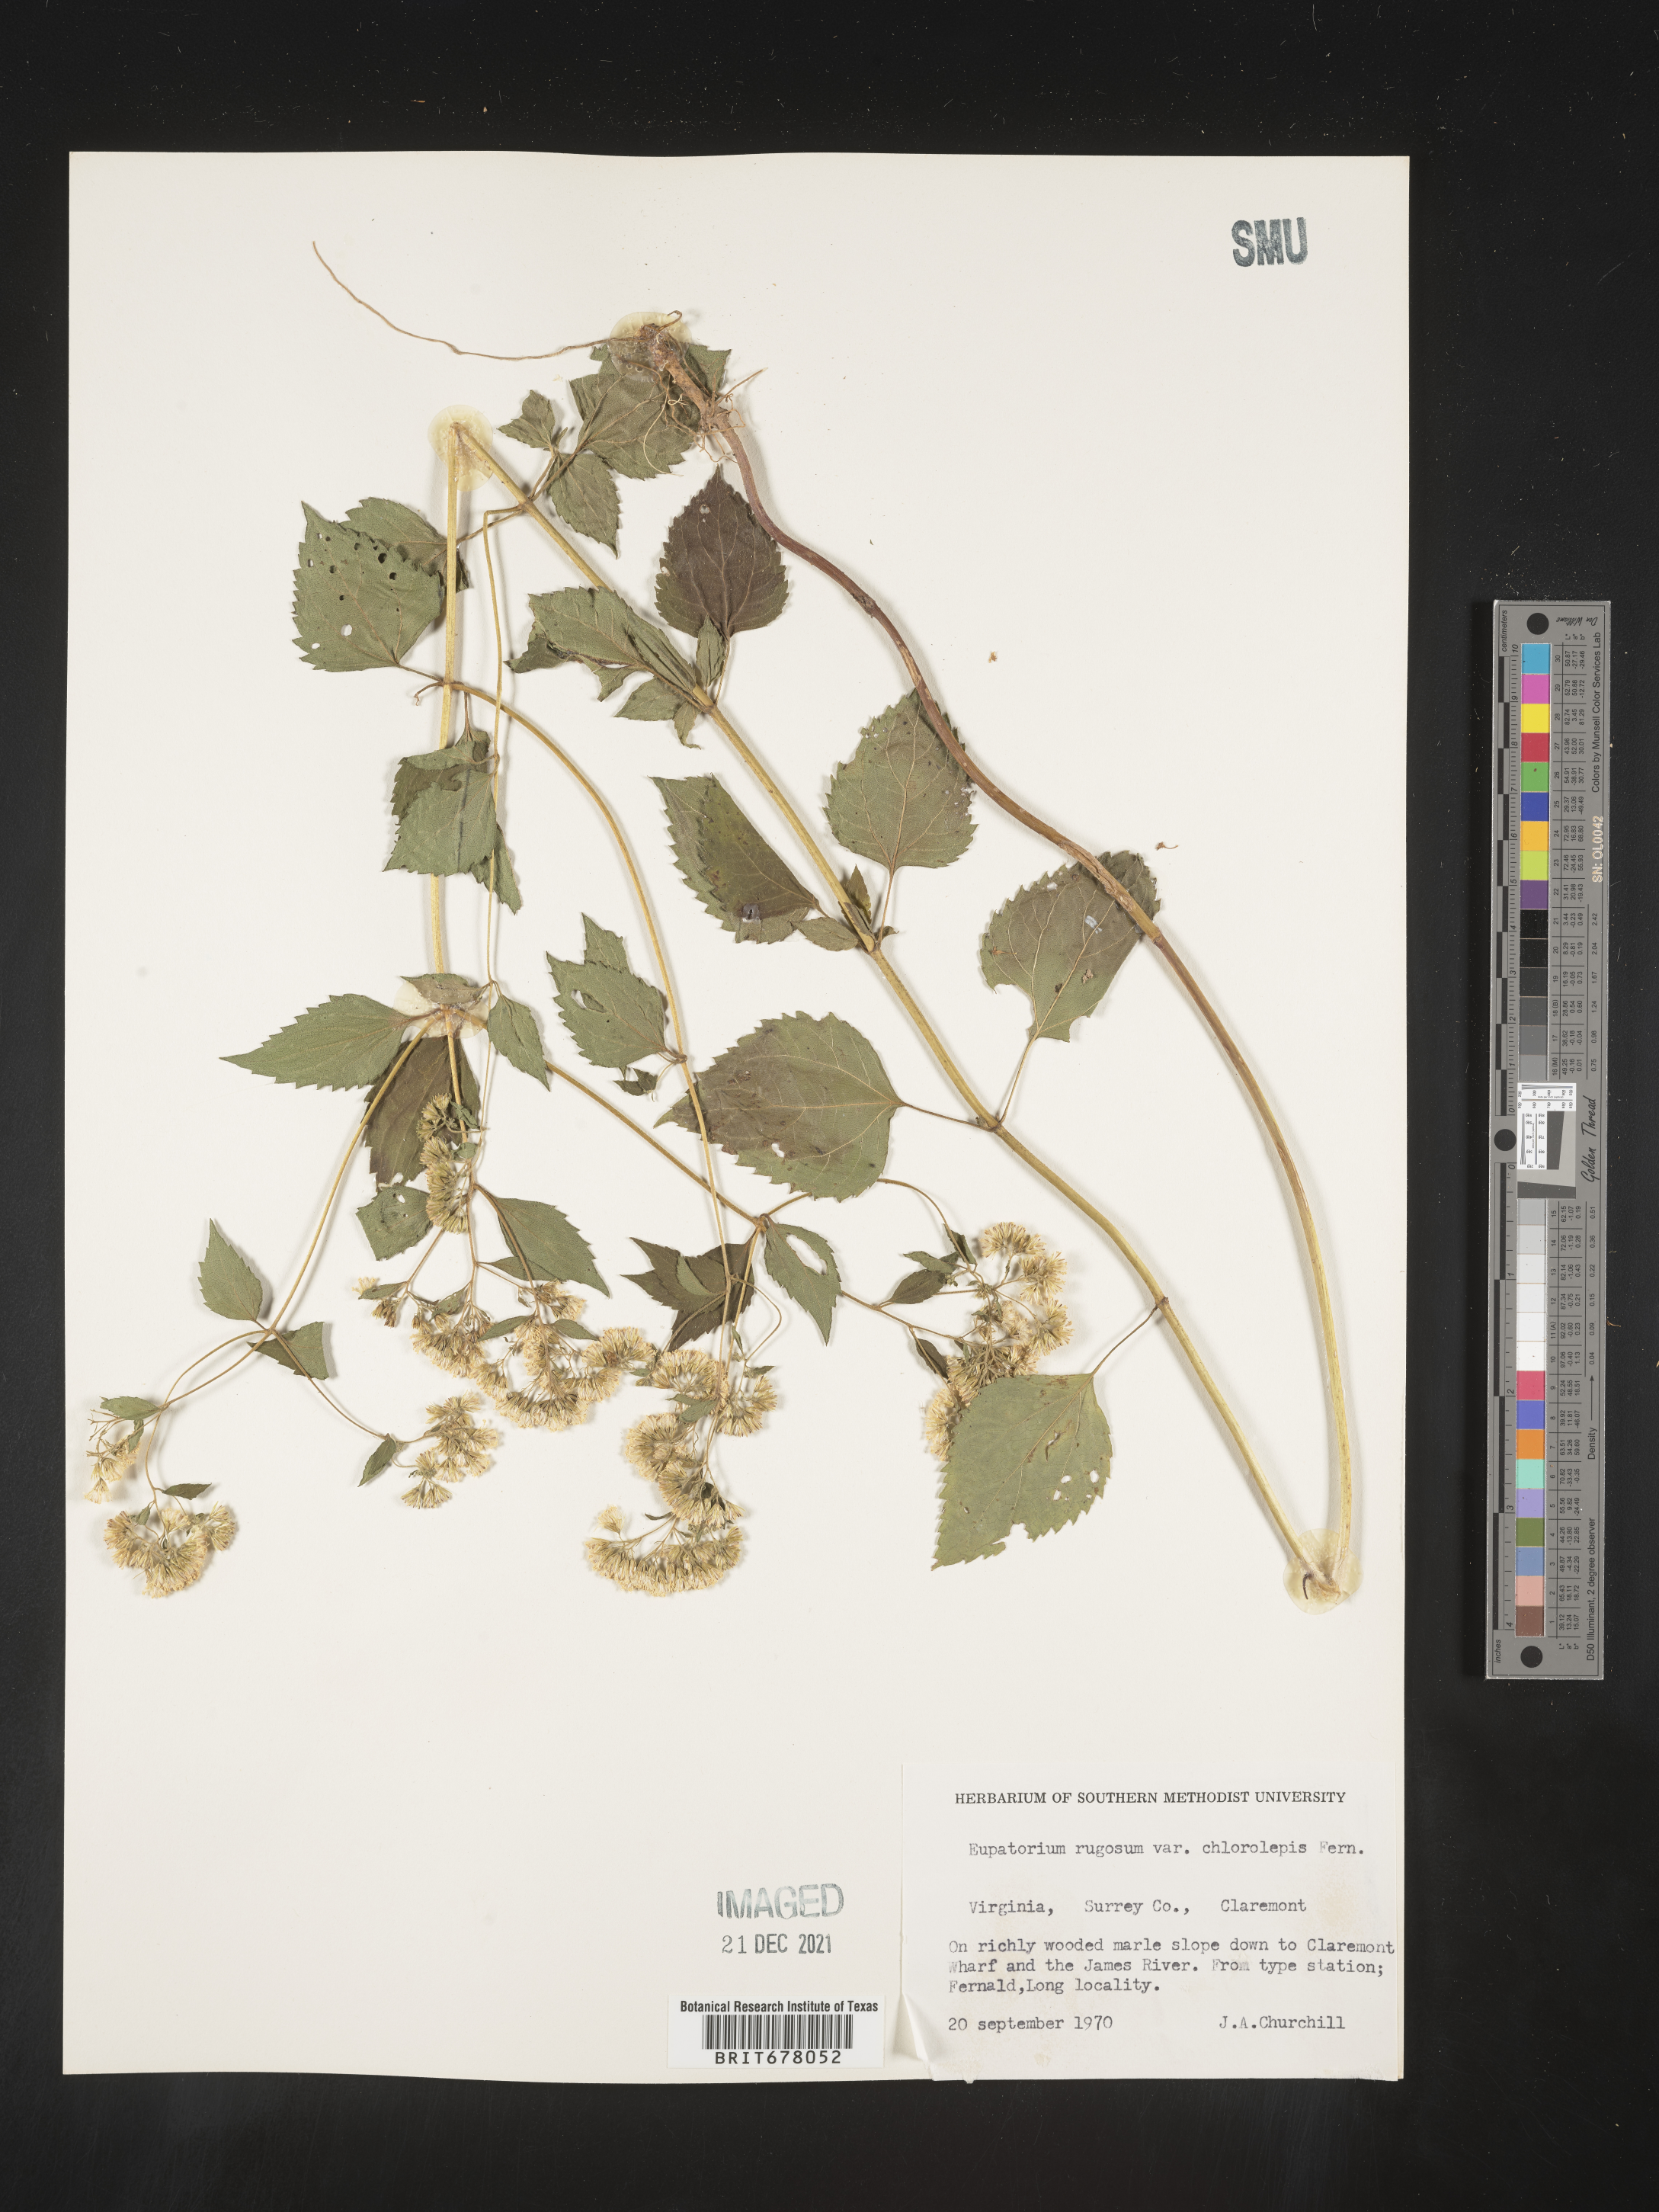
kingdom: Plantae
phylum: Tracheophyta
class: Magnoliopsida
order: Asterales
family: Asteraceae
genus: Eupatorium
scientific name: Eupatorium
